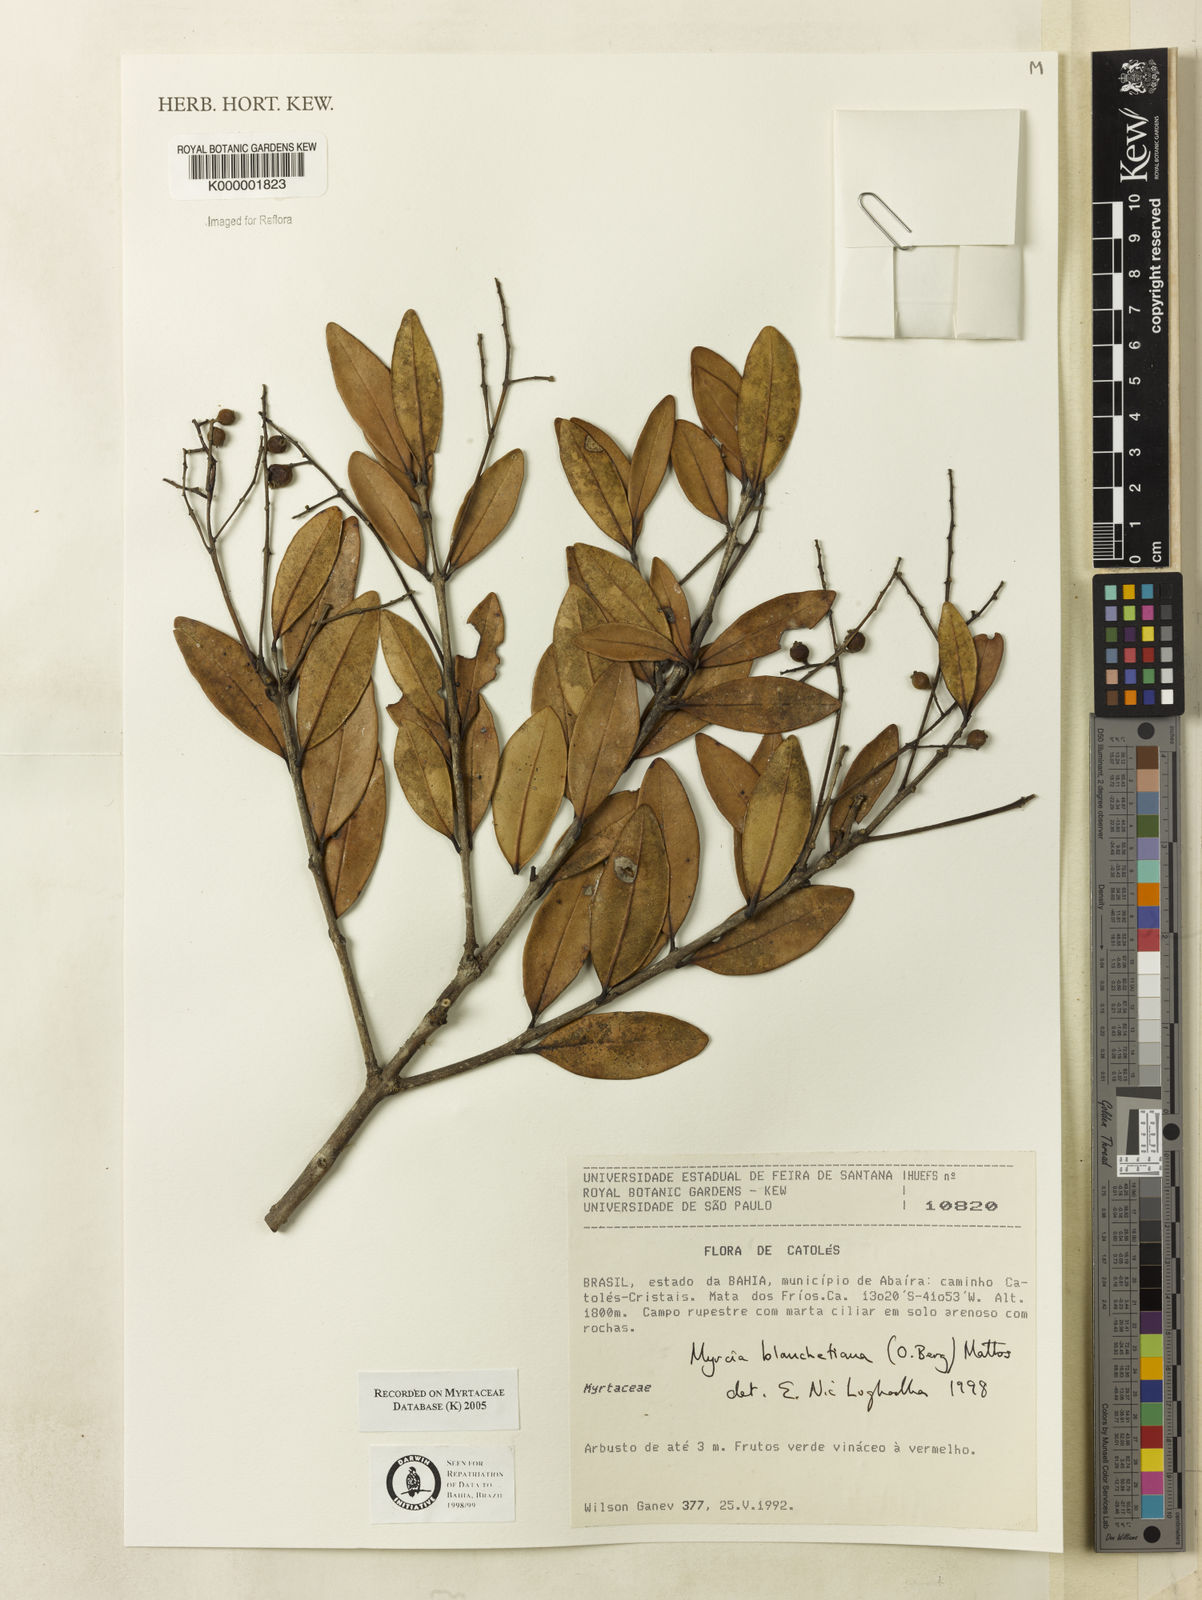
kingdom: Plantae
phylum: Tracheophyta
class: Magnoliopsida
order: Myrtales
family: Myrtaceae
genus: Myrcia
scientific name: Myrcia blanchetiana
